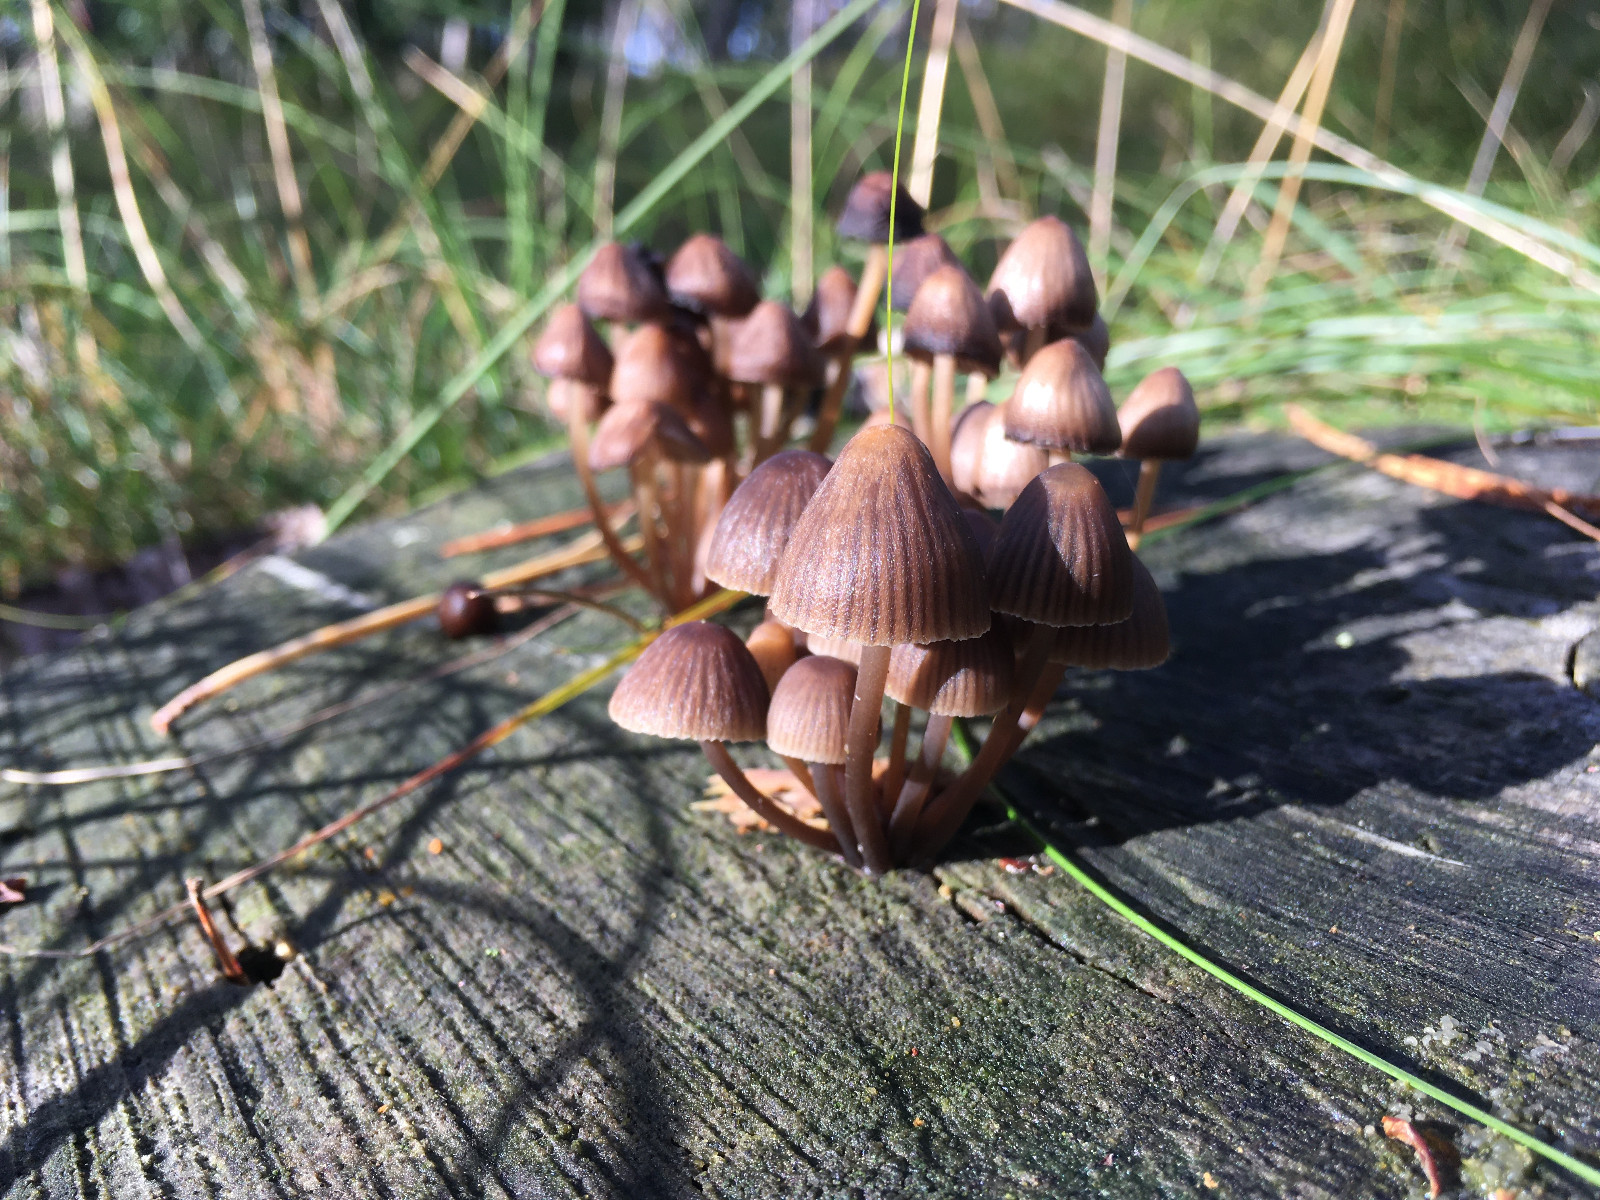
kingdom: Fungi
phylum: Basidiomycota
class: Agaricomycetes
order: Agaricales
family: Mycenaceae
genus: Mycena
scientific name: Mycena stipata
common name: stinkende huesvamp
